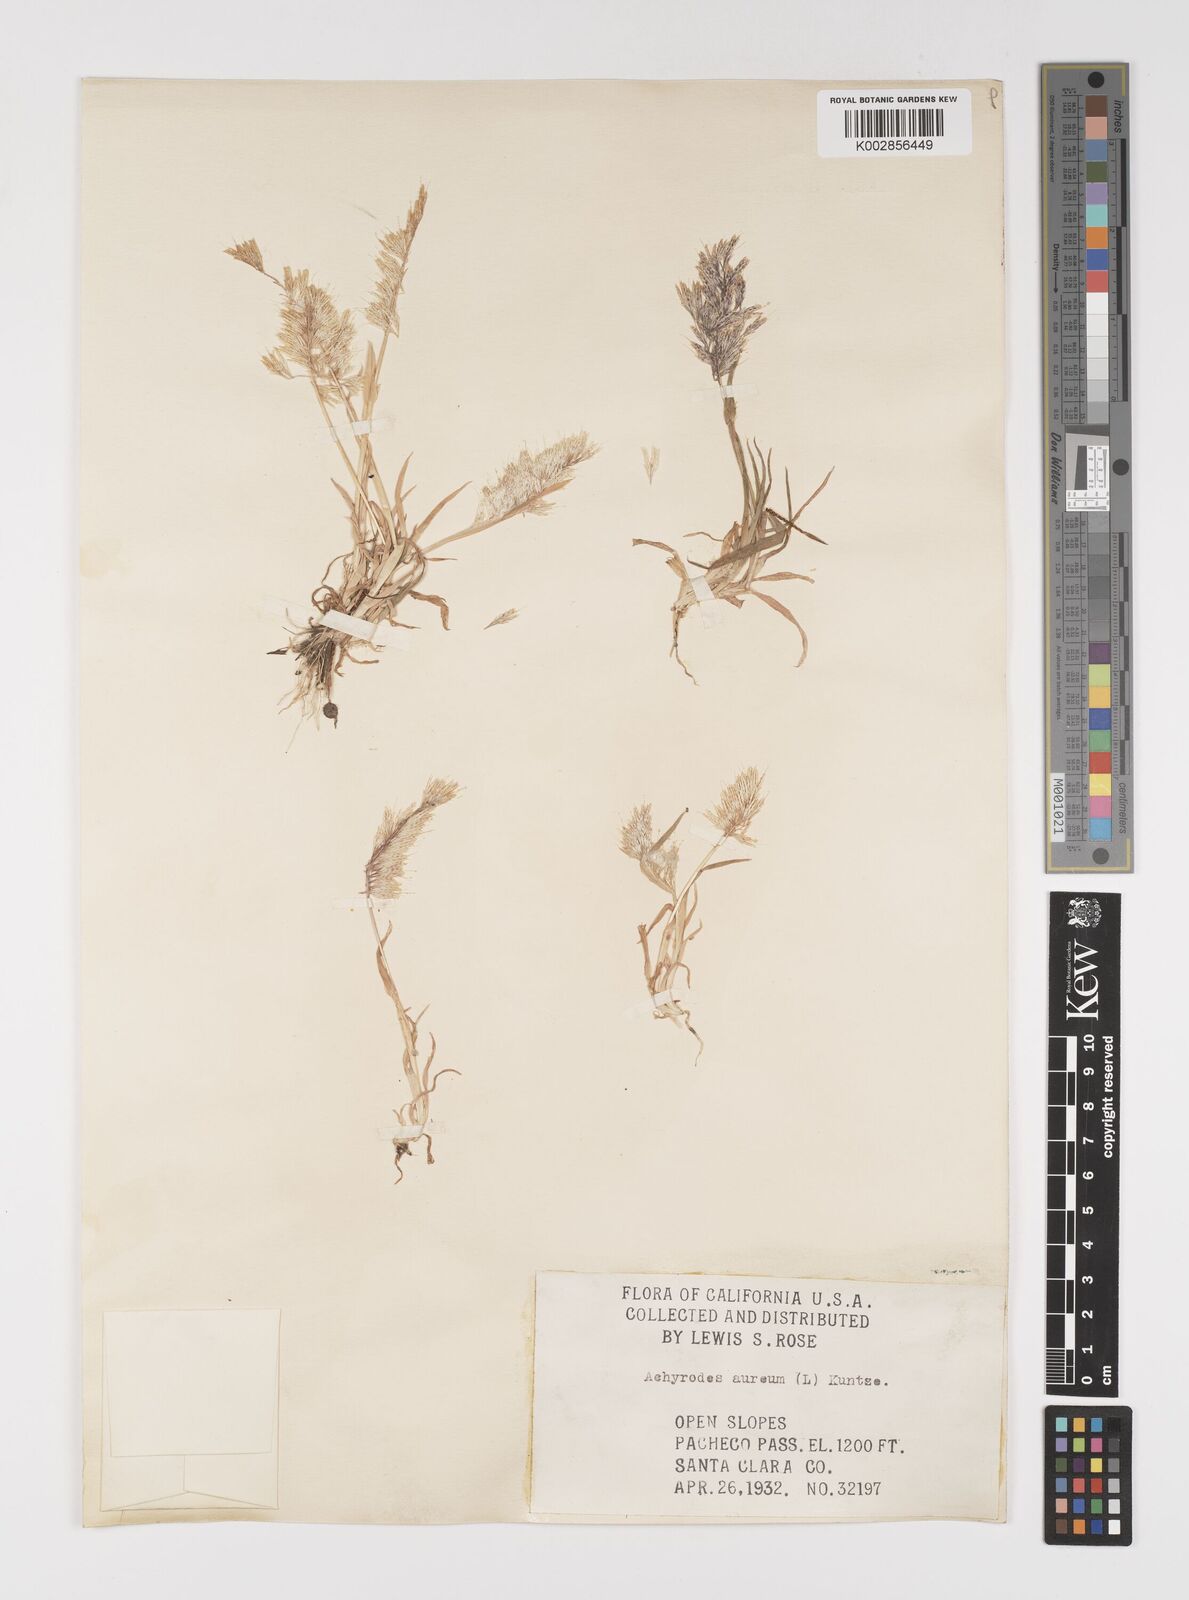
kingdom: Plantae
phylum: Tracheophyta
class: Liliopsida
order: Poales
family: Poaceae
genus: Lamarckia
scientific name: Lamarckia aurea
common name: Golden dog's-tail
